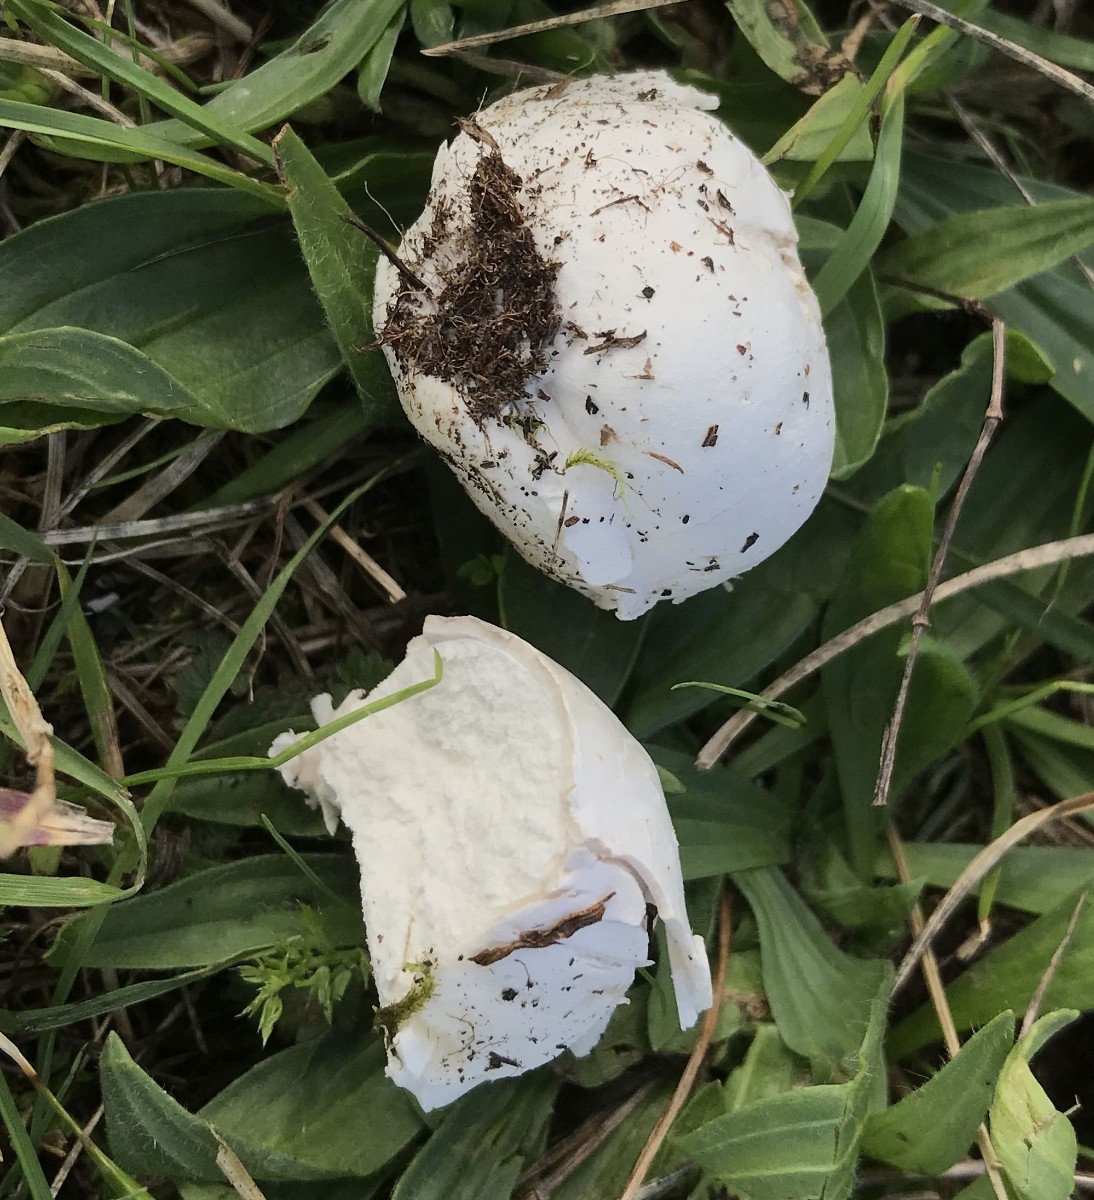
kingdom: Fungi
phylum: Basidiomycota
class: Agaricomycetes
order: Agaricales
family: Lycoperdaceae
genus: Bovista
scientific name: Bovista
